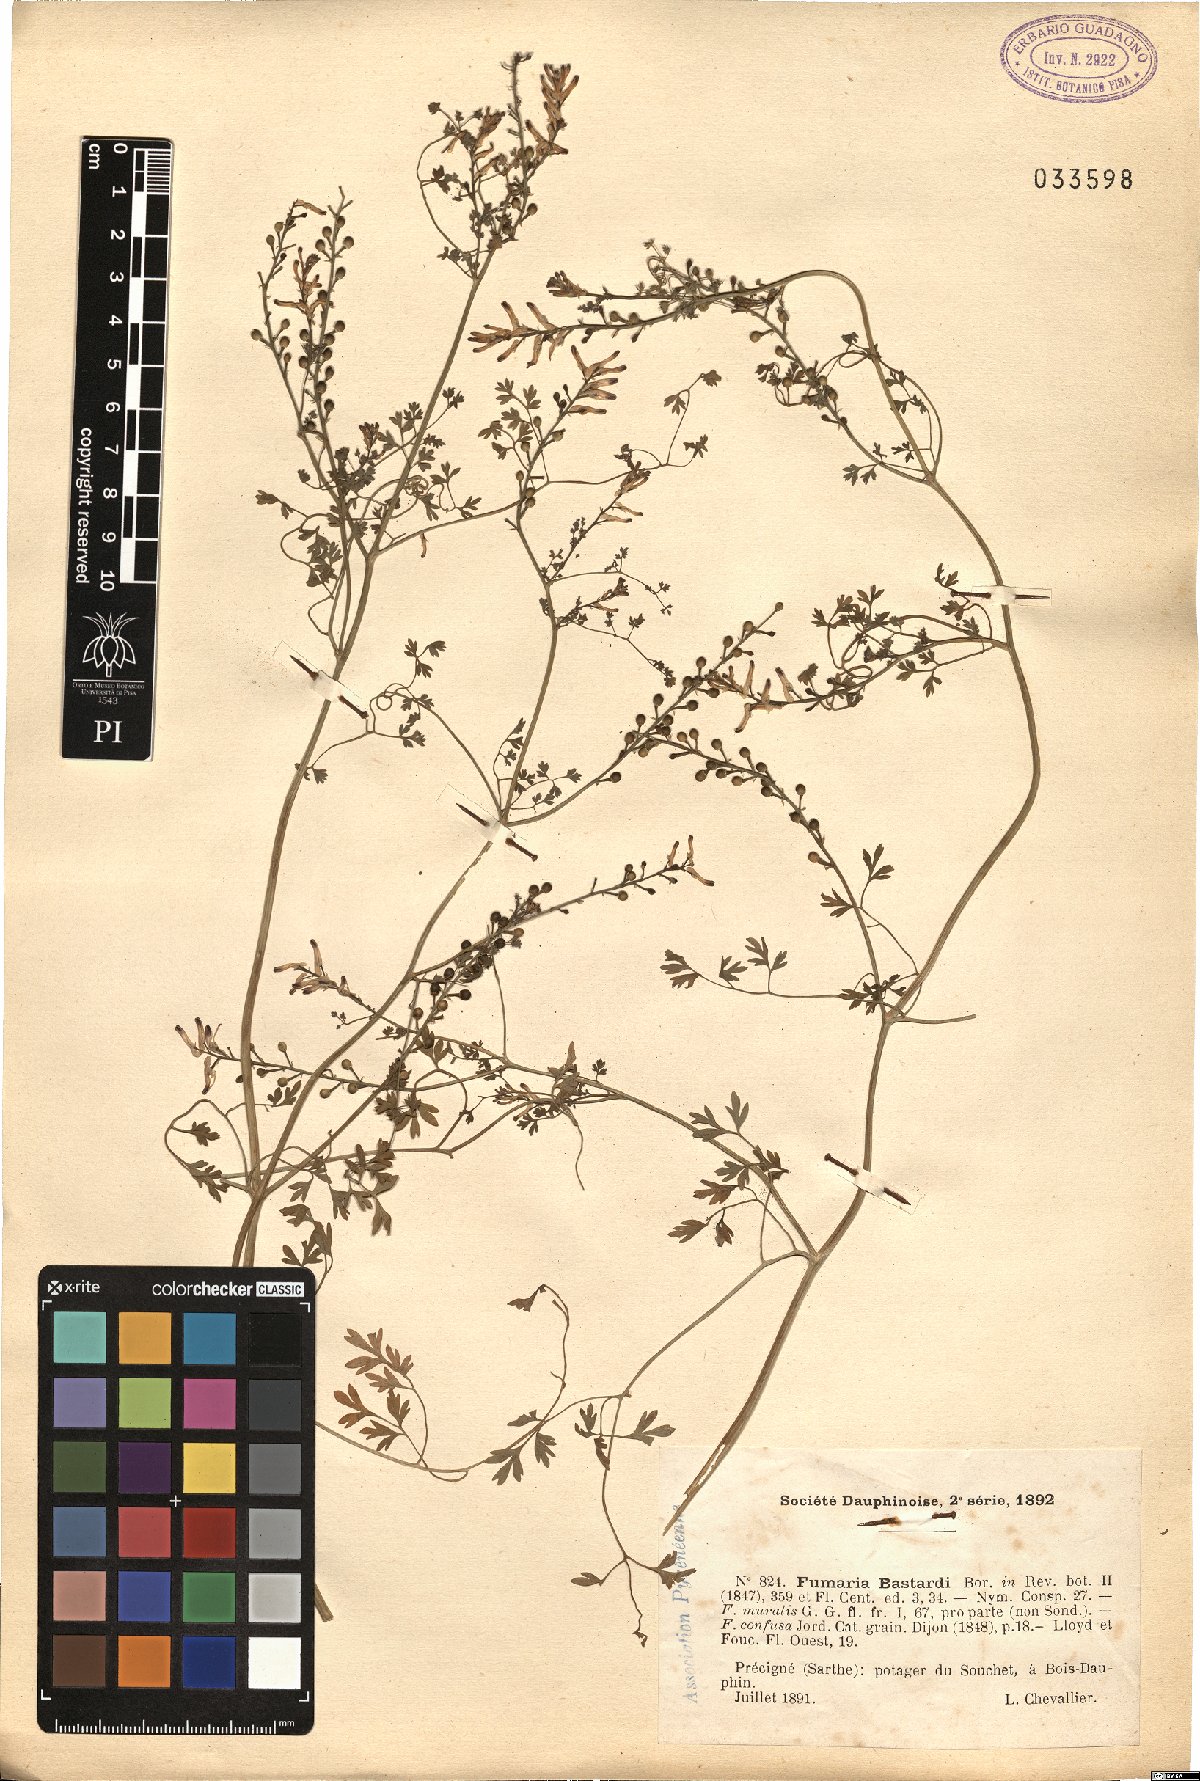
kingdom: Plantae
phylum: Tracheophyta
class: Magnoliopsida
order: Ranunculales
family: Papaveraceae
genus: Fumaria
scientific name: Fumaria bastardii
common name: Tall ramping-fumitory
